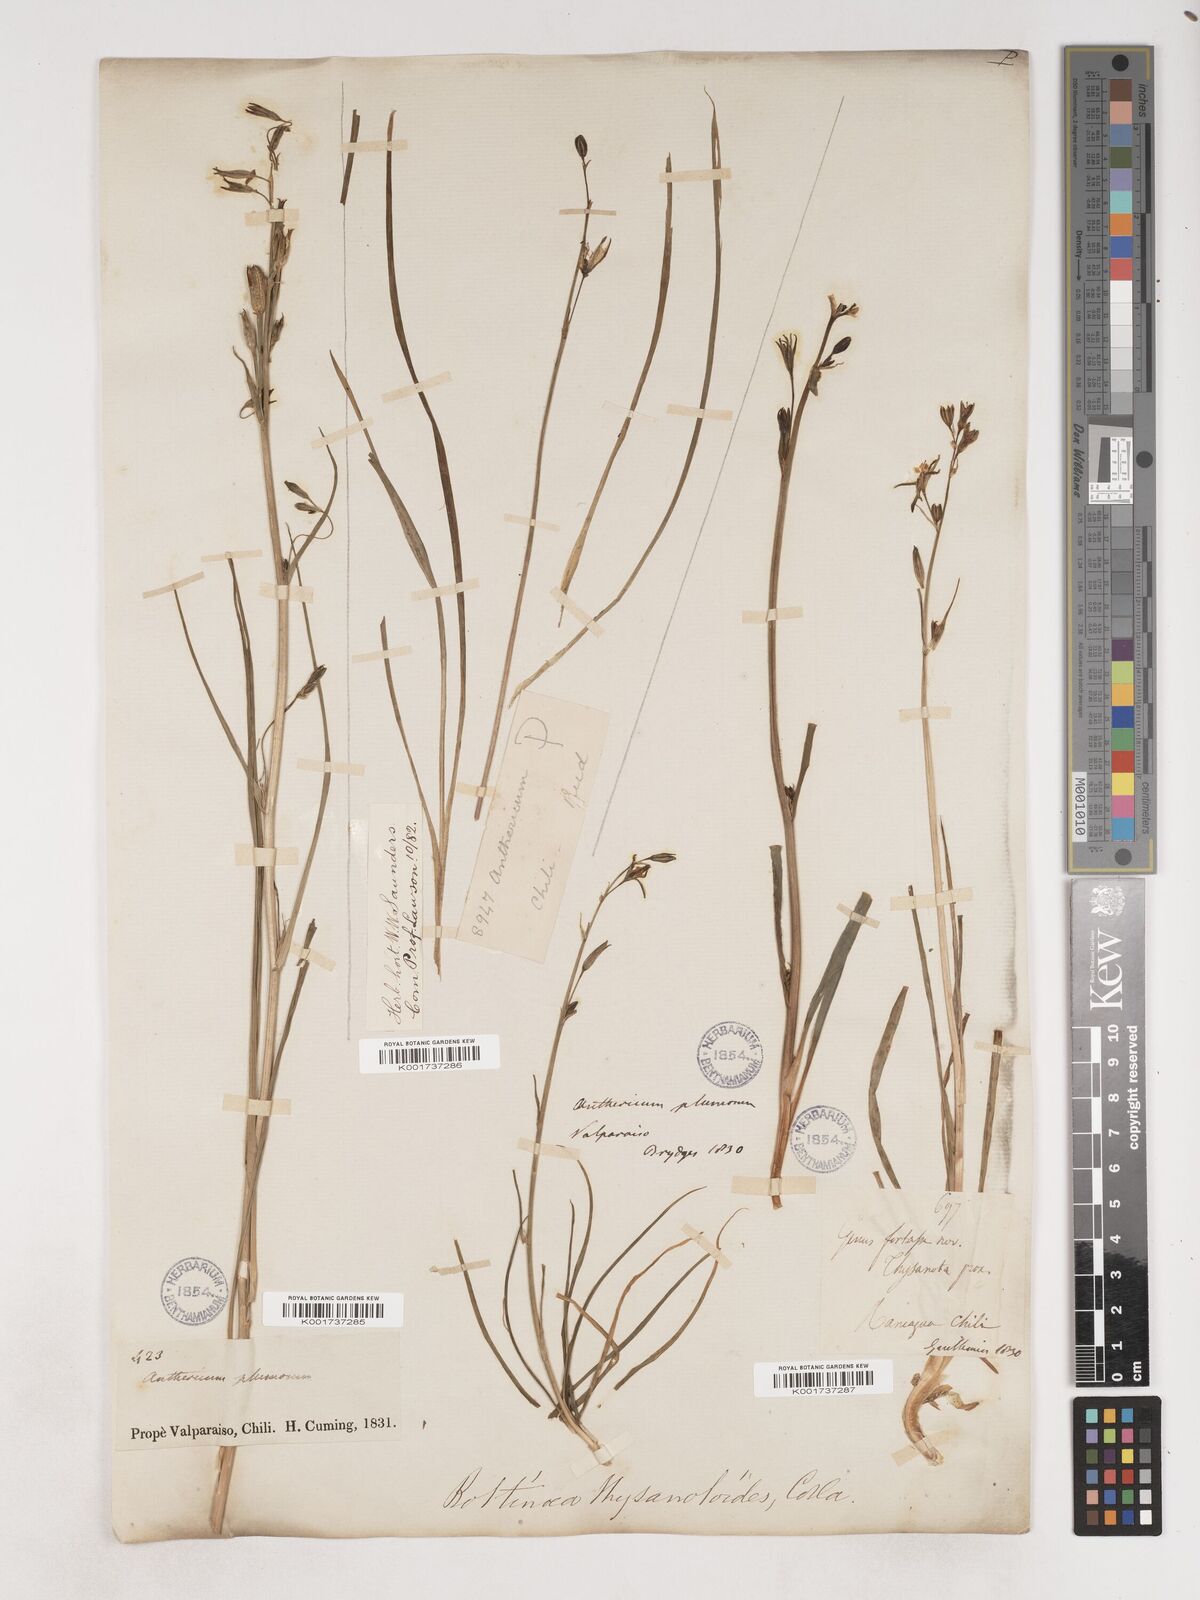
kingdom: Plantae
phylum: Tracheophyta
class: Liliopsida
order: Asparagales
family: Asparagaceae
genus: Trichopetalum
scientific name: Trichopetalum plumosum
